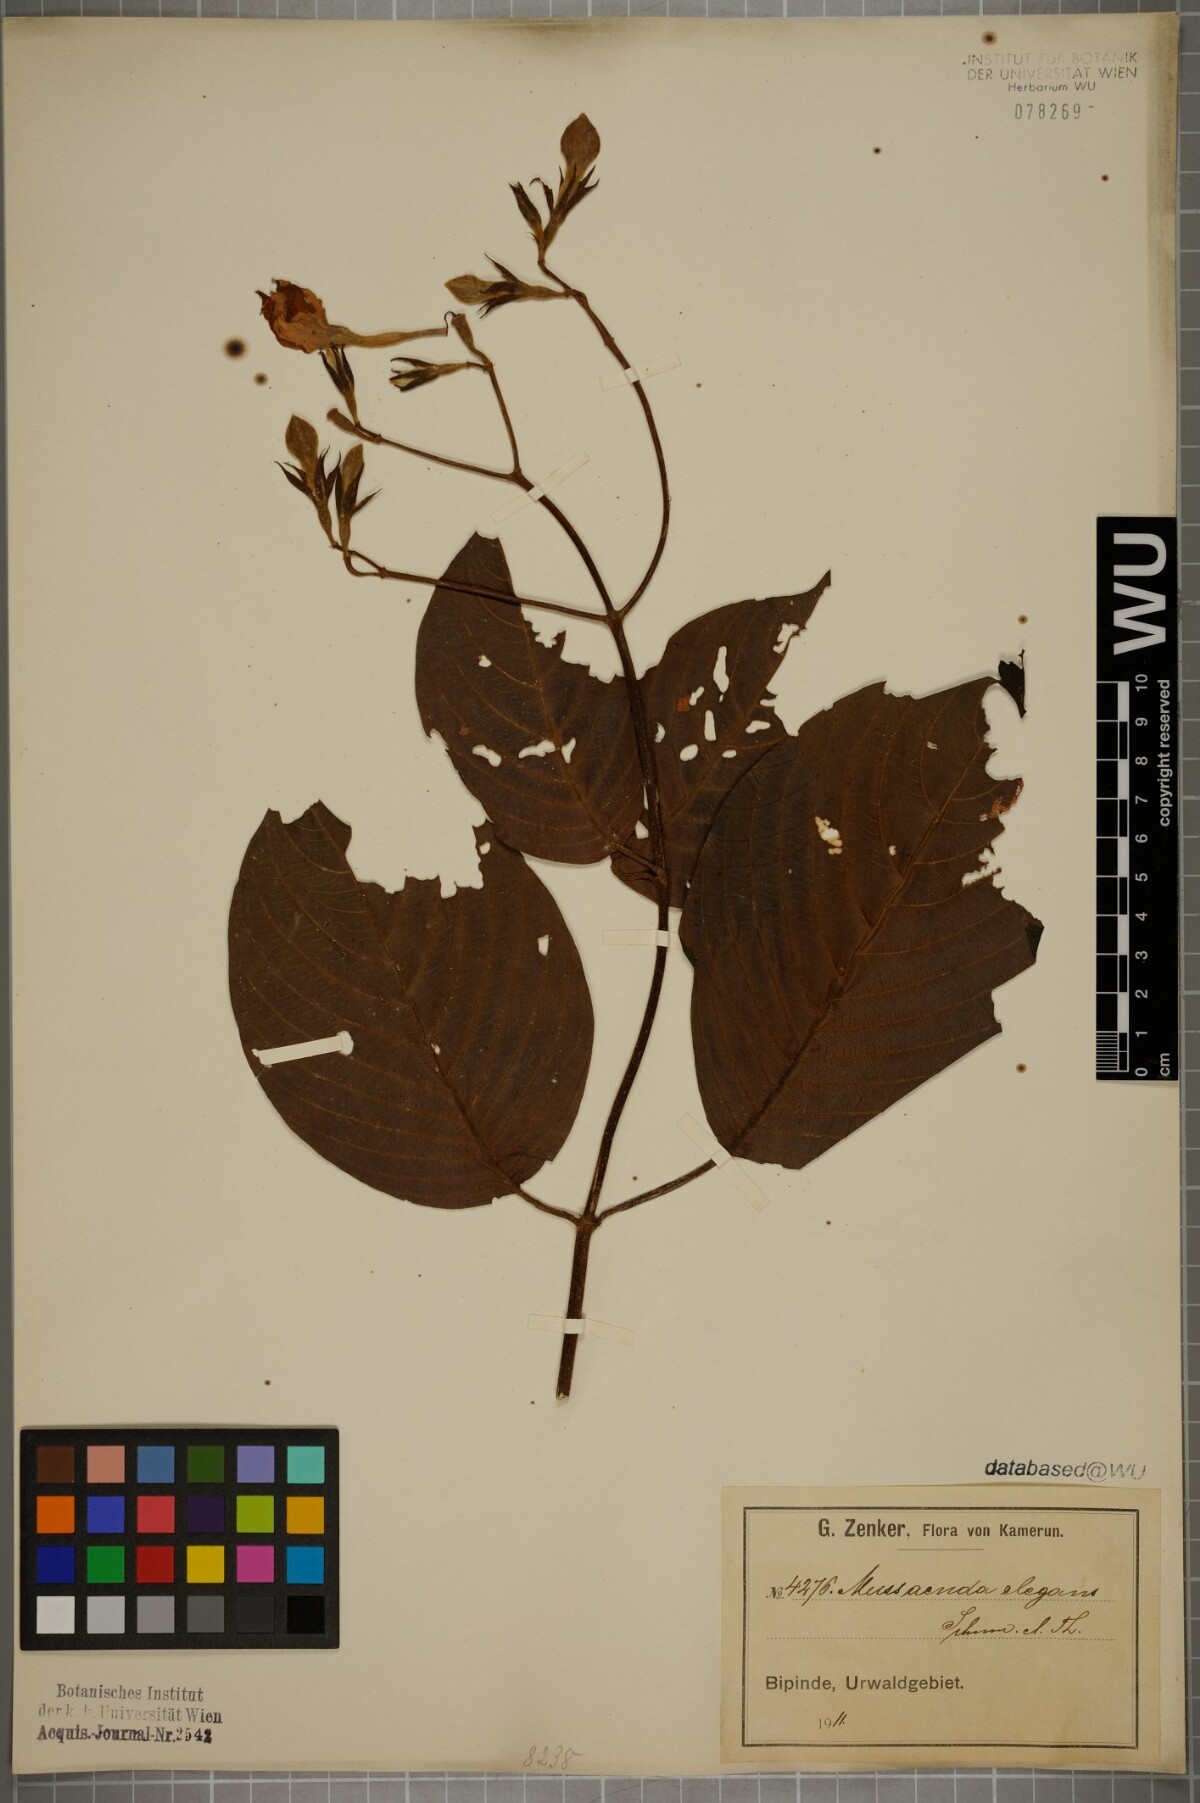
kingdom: Plantae
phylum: Tracheophyta
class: Magnoliopsida
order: Gentianales
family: Rubiaceae
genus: Mussaenda
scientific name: Mussaenda elegans
